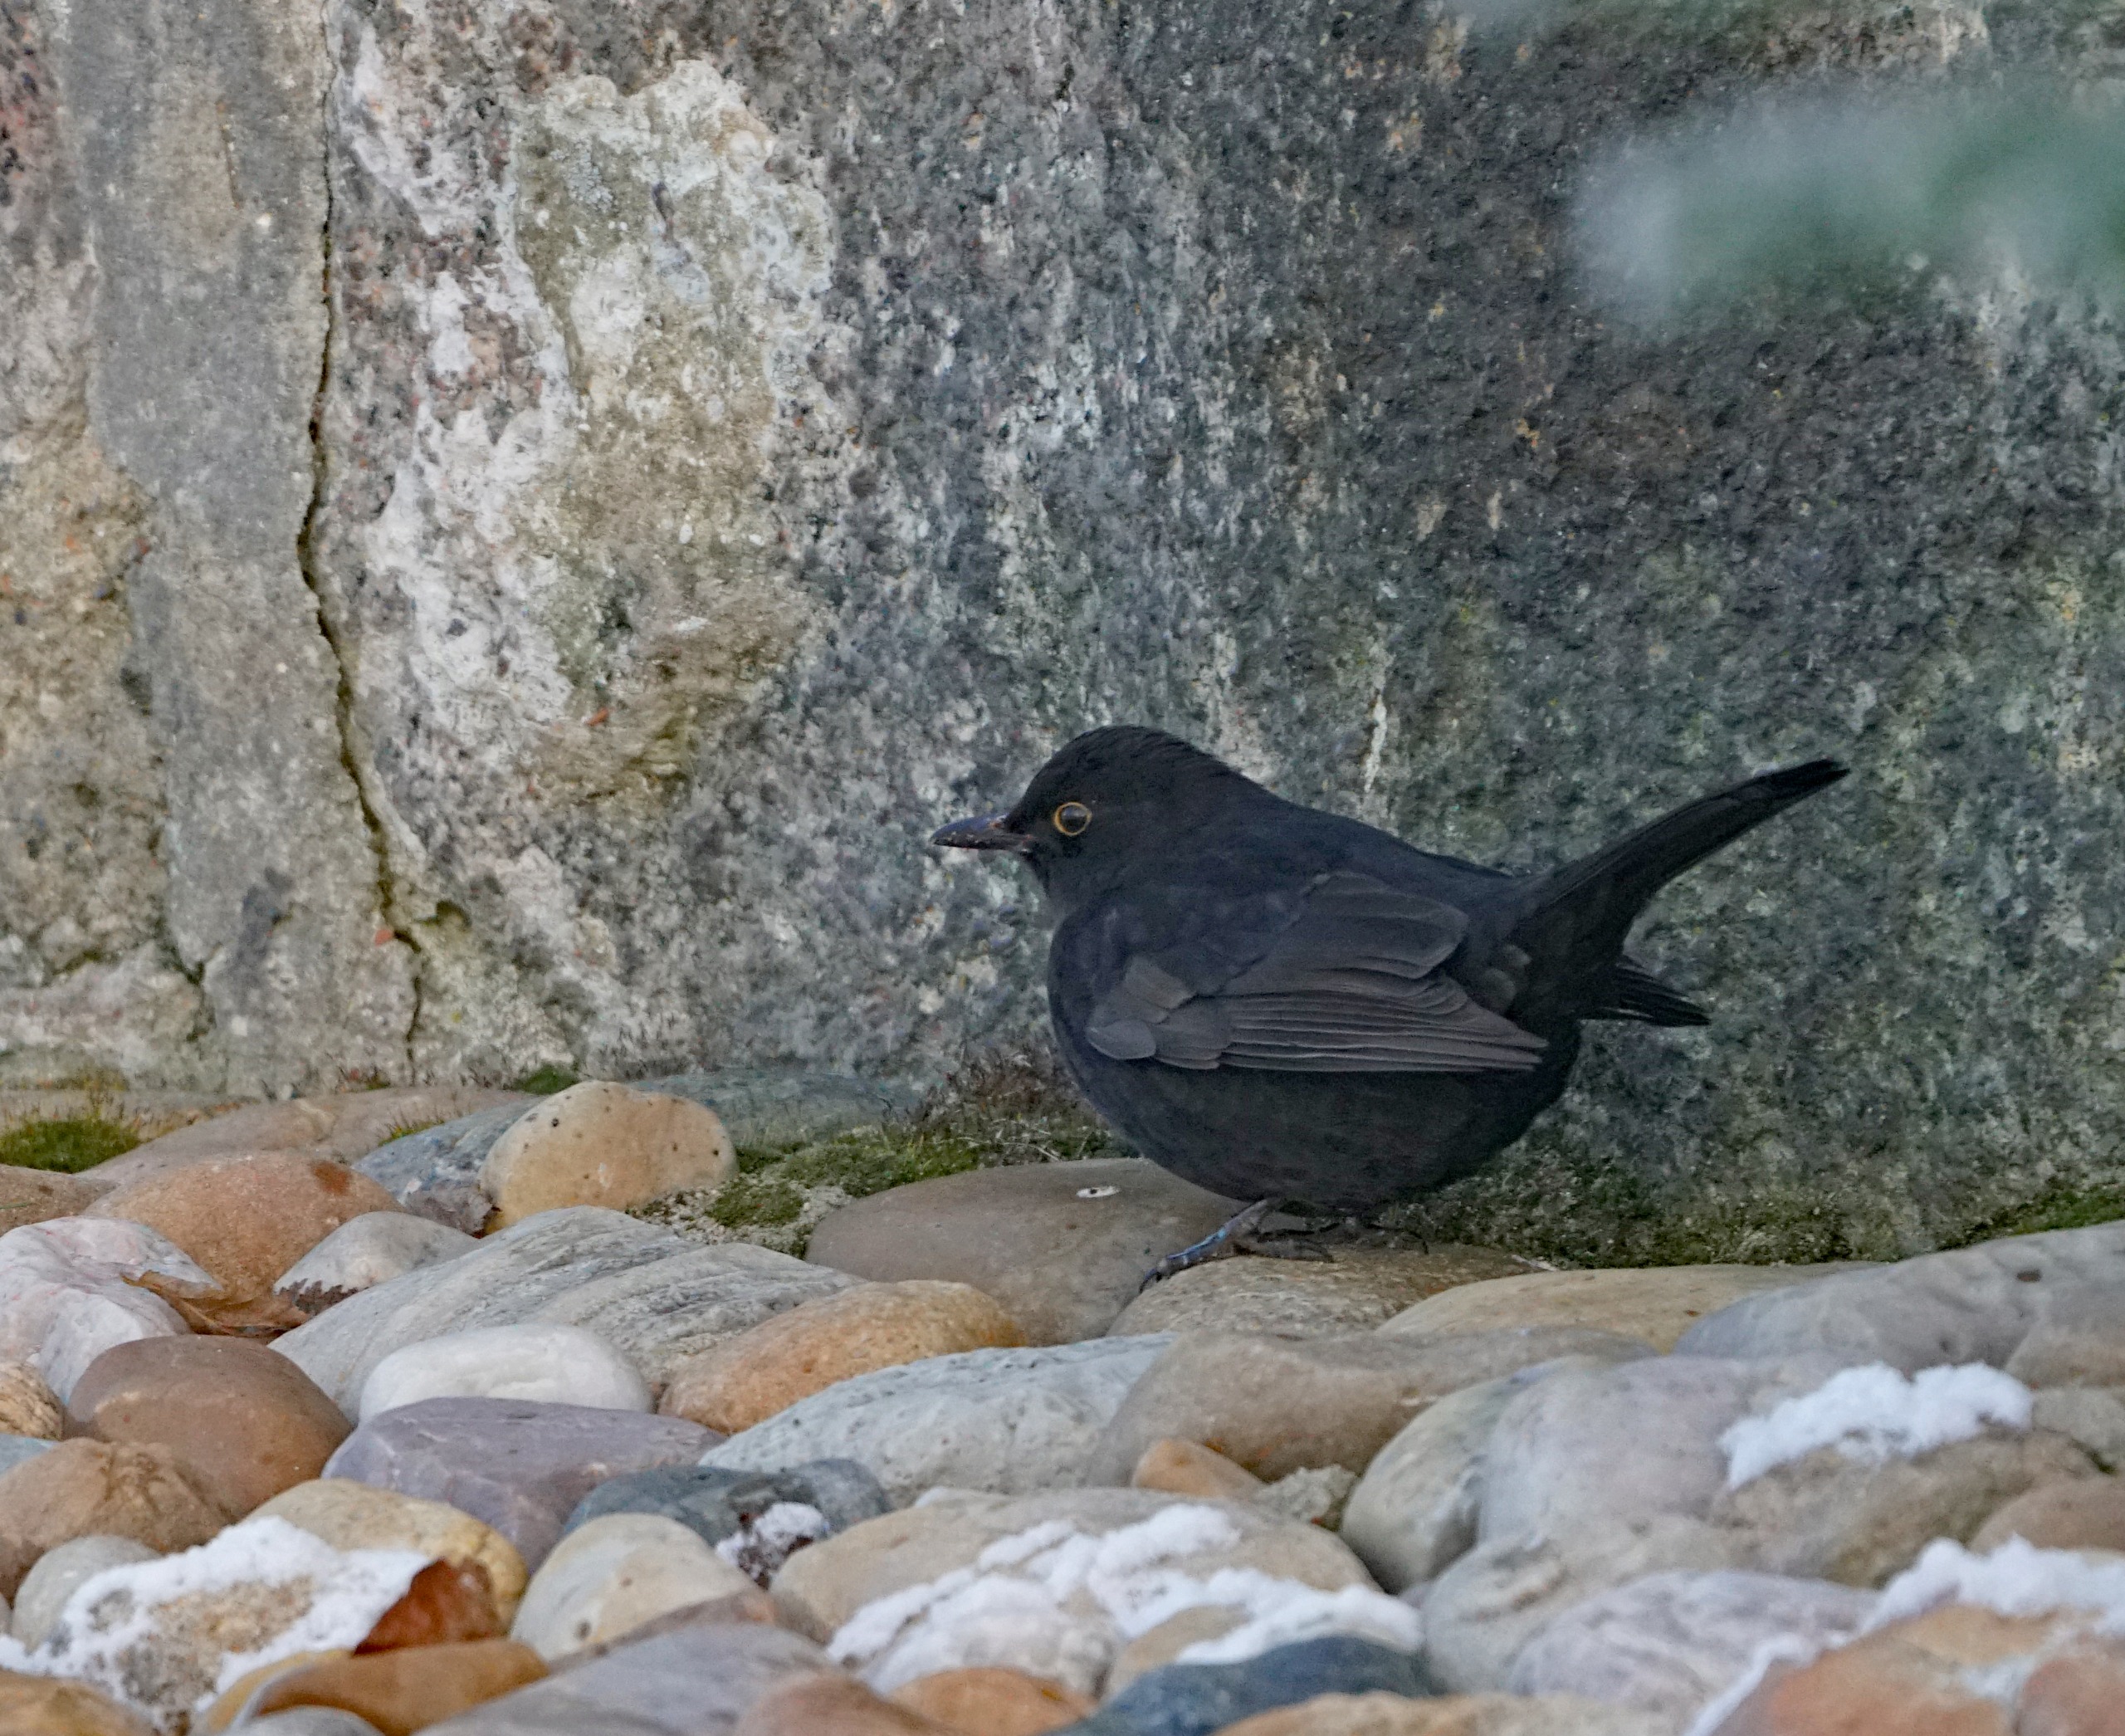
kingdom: Animalia
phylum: Chordata
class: Aves
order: Passeriformes
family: Turdidae
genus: Turdus
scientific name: Turdus merula
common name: Solsort
